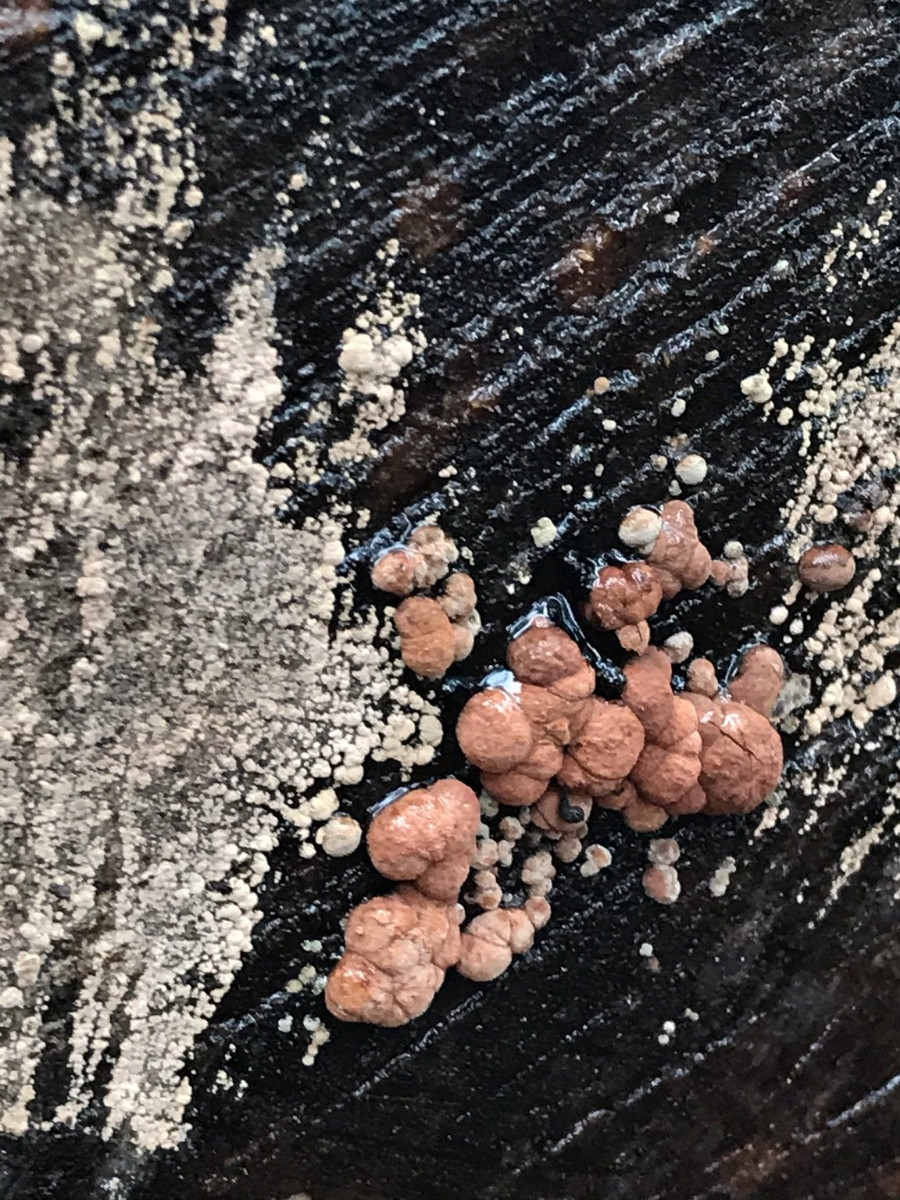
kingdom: Fungi
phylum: Ascomycota
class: Sordariomycetes
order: Xylariales
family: Hypoxylaceae
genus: Hypoxylon
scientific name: Hypoxylon fragiforme
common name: kuljordbær
